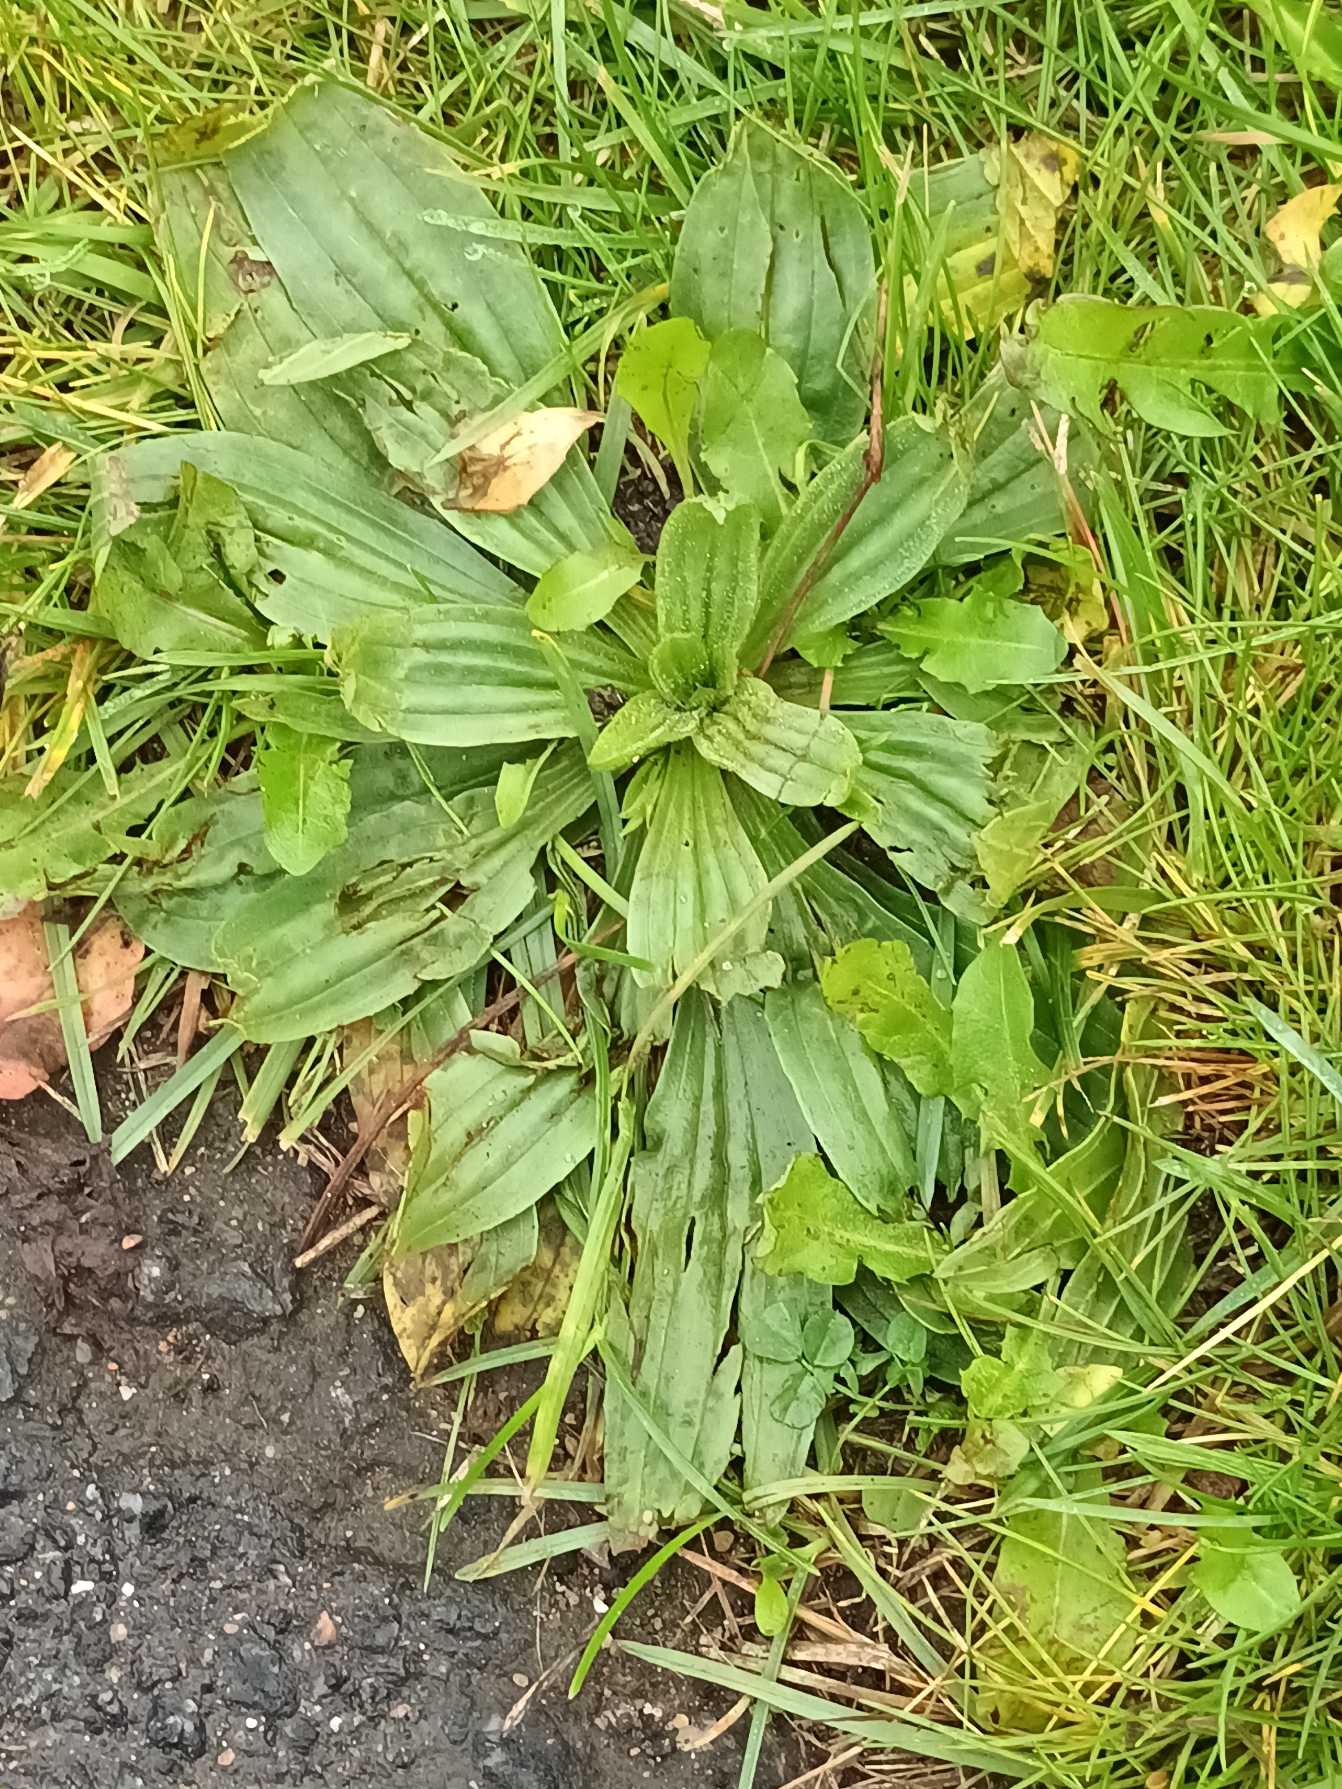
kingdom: Plantae
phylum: Tracheophyta
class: Magnoliopsida
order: Lamiales
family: Plantaginaceae
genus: Plantago
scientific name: Plantago lanceolata
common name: Lancet-vejbred
